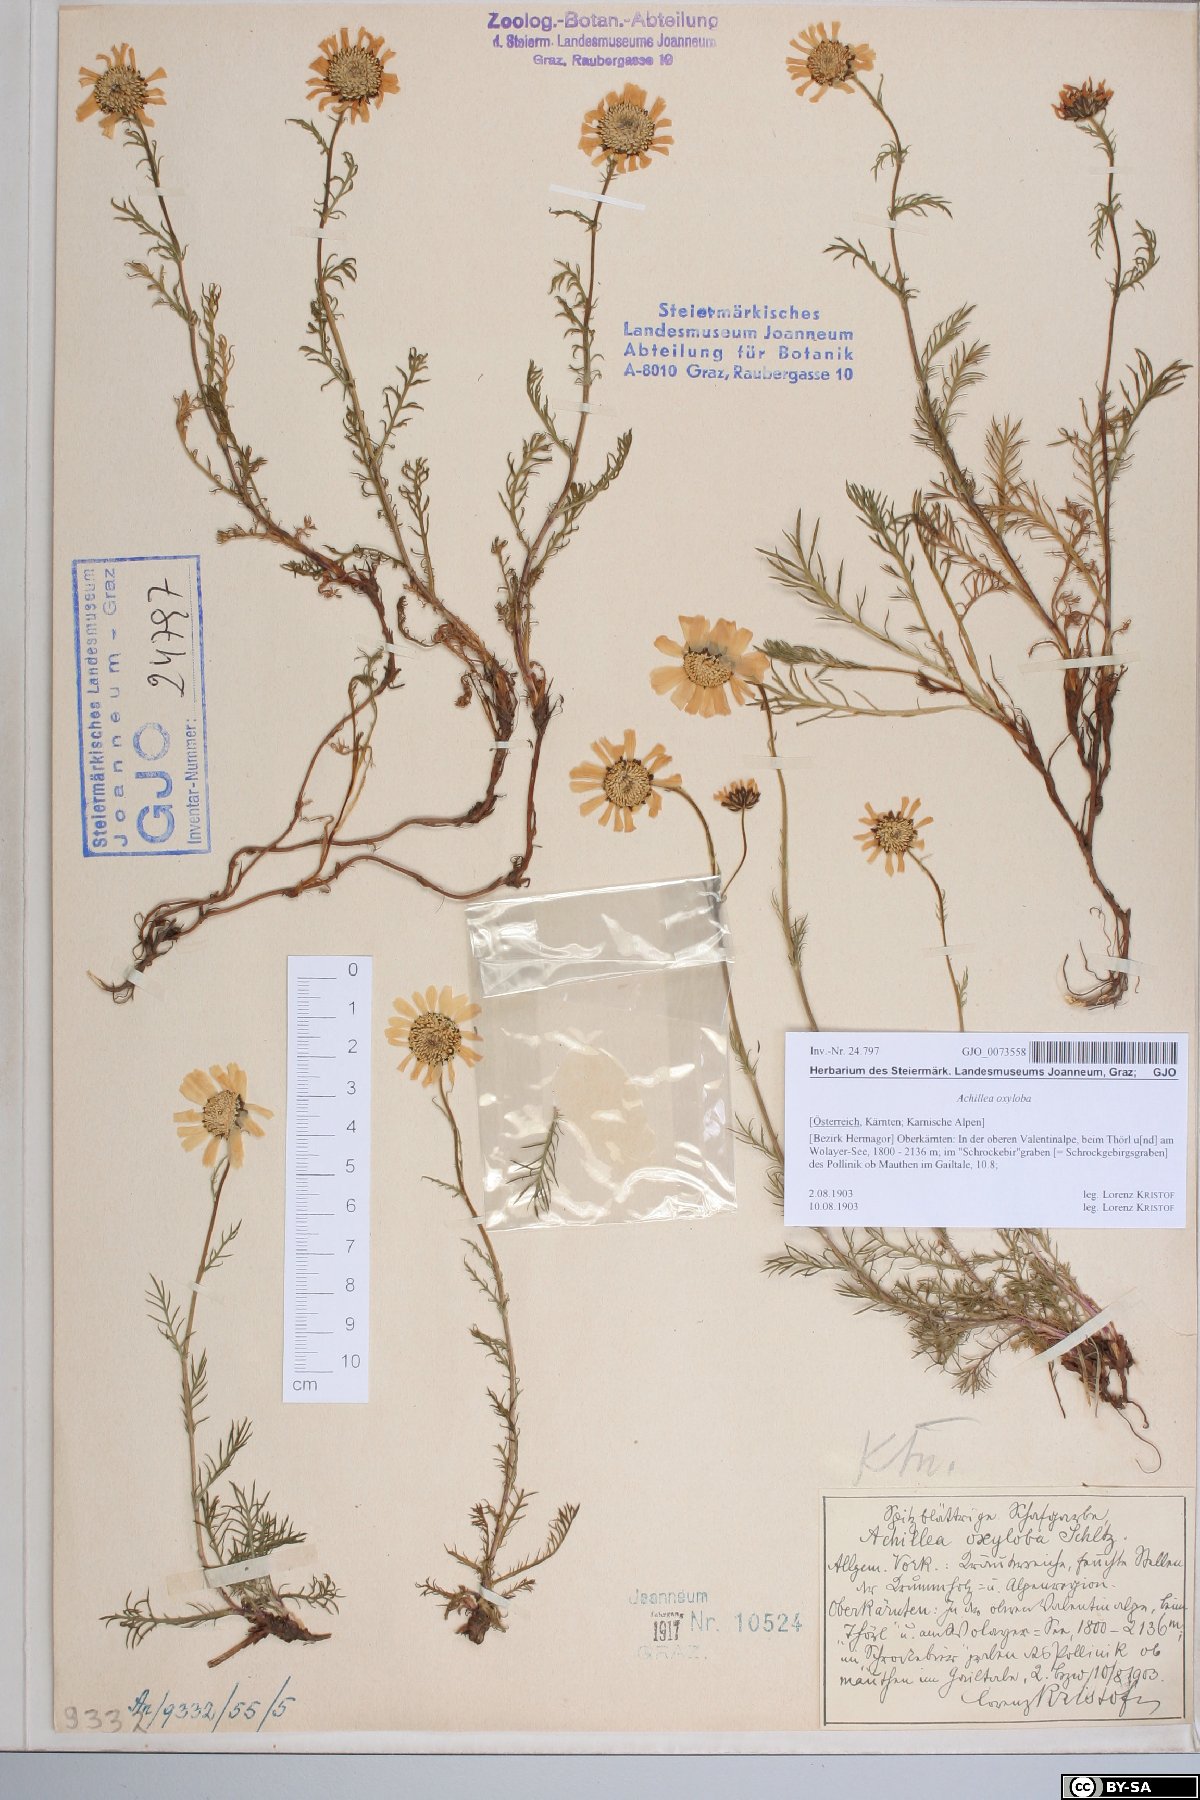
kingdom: Plantae
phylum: Tracheophyta
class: Magnoliopsida
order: Asterales
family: Asteraceae
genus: Achillea
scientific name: Achillea oxyloba
